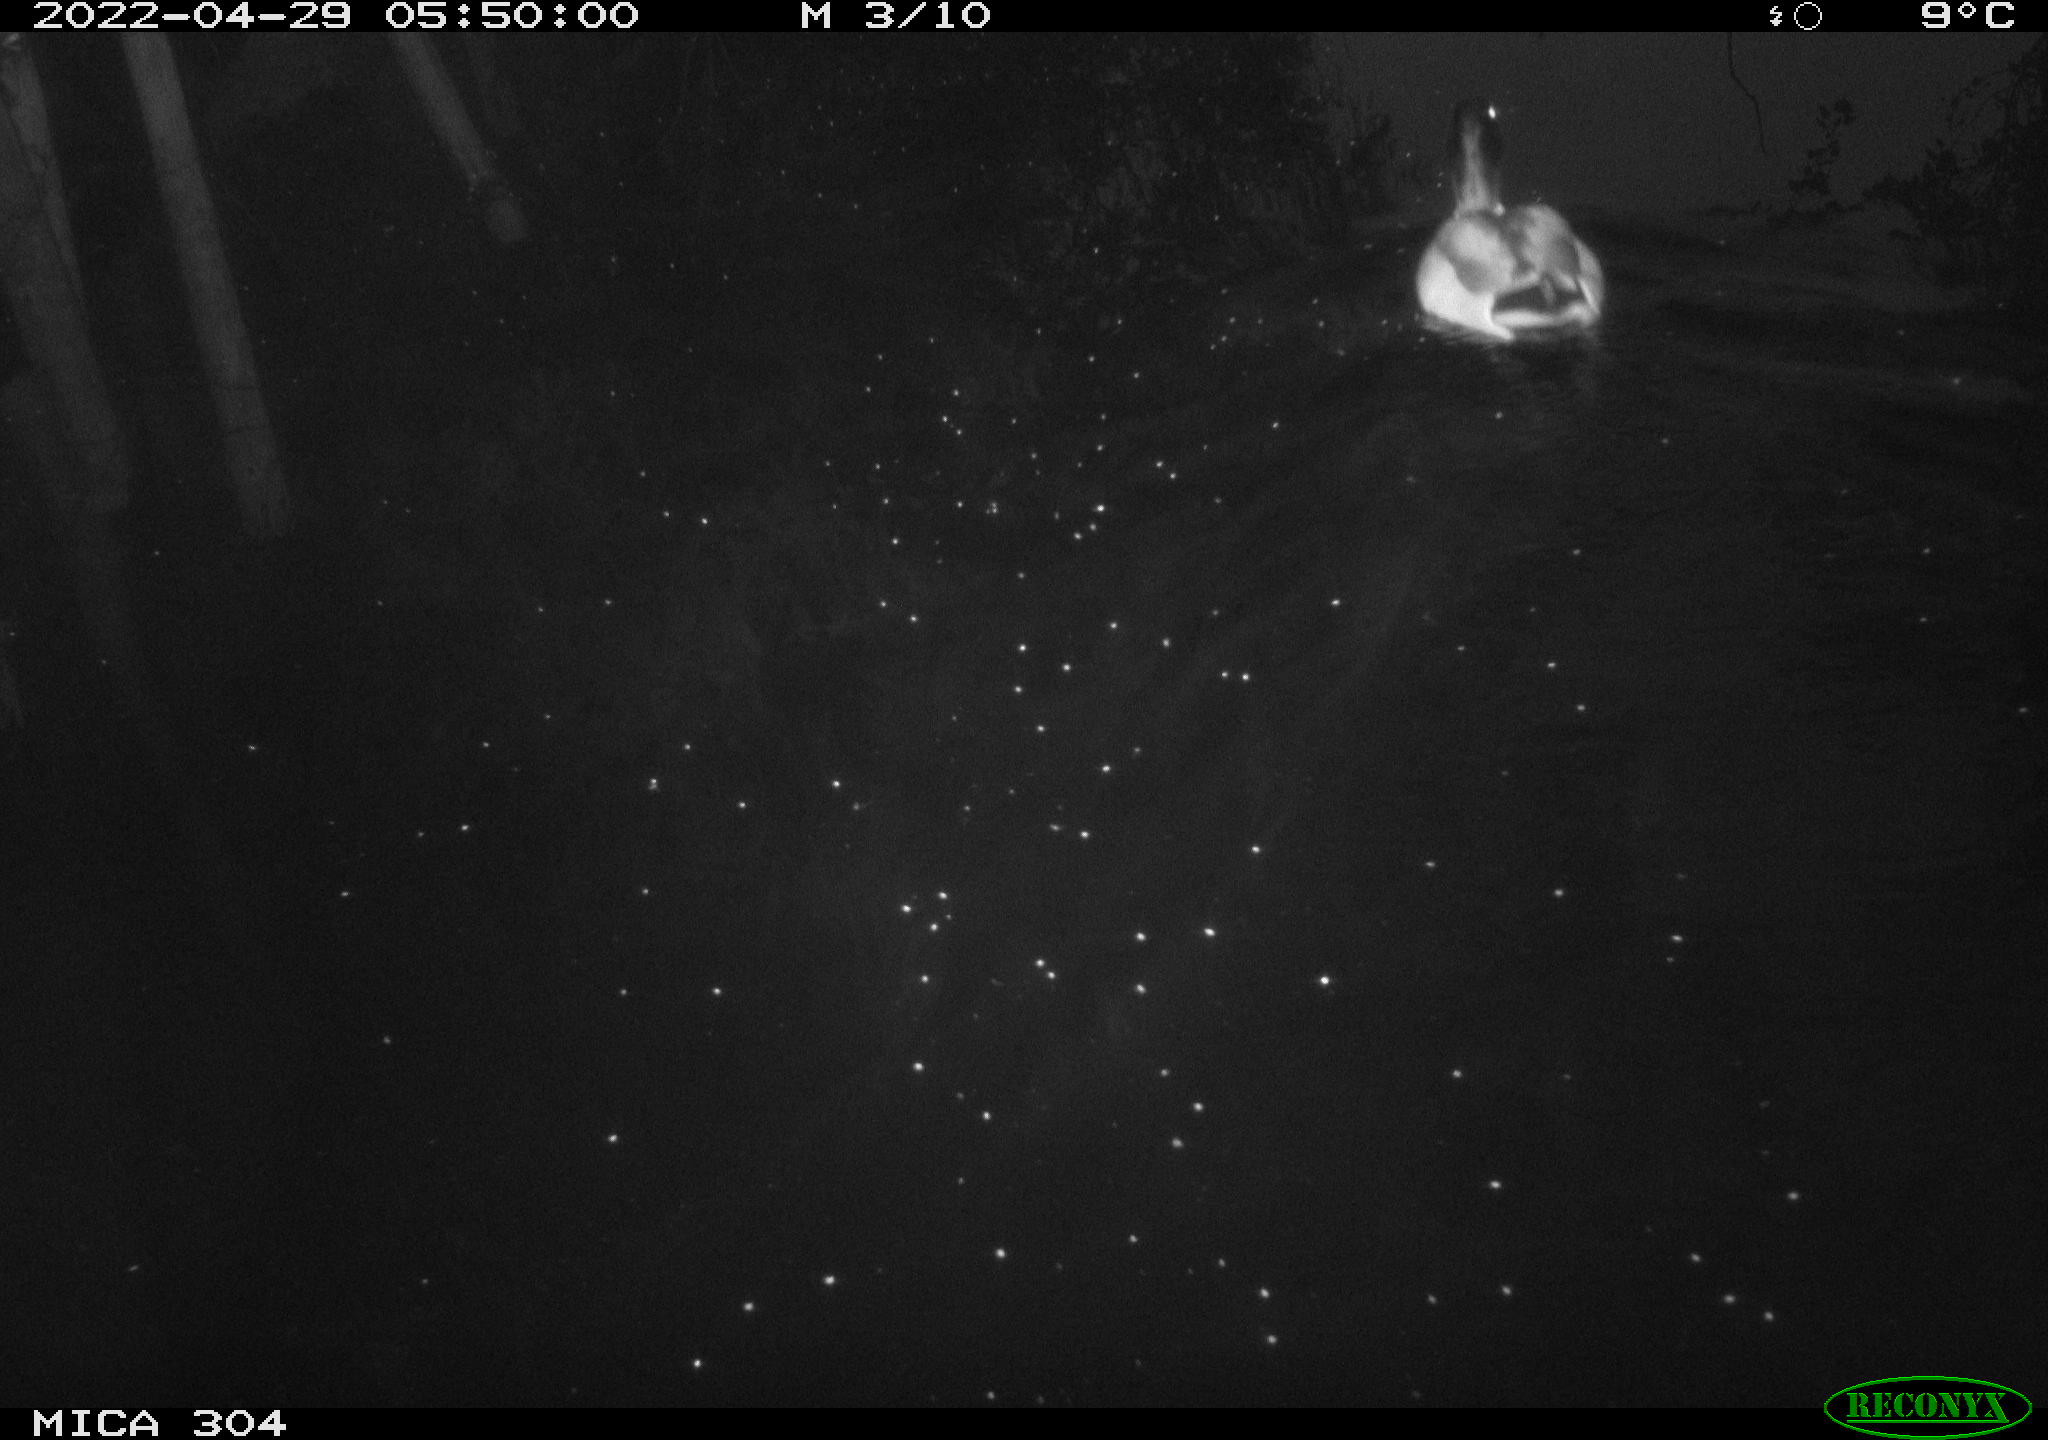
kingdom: Animalia
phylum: Chordata
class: Aves
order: Anseriformes
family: Anatidae
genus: Anas
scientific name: Anas platyrhynchos
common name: Mallard
